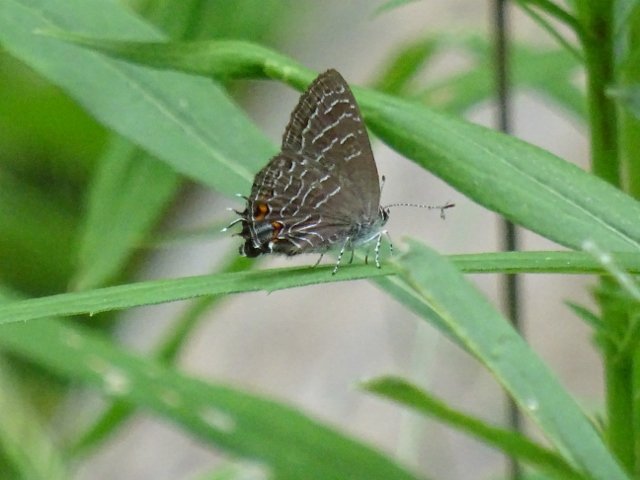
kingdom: Animalia
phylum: Arthropoda
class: Insecta
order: Lepidoptera
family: Lycaenidae
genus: Satyrium
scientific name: Satyrium liparops
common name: Striped Hairstreak
